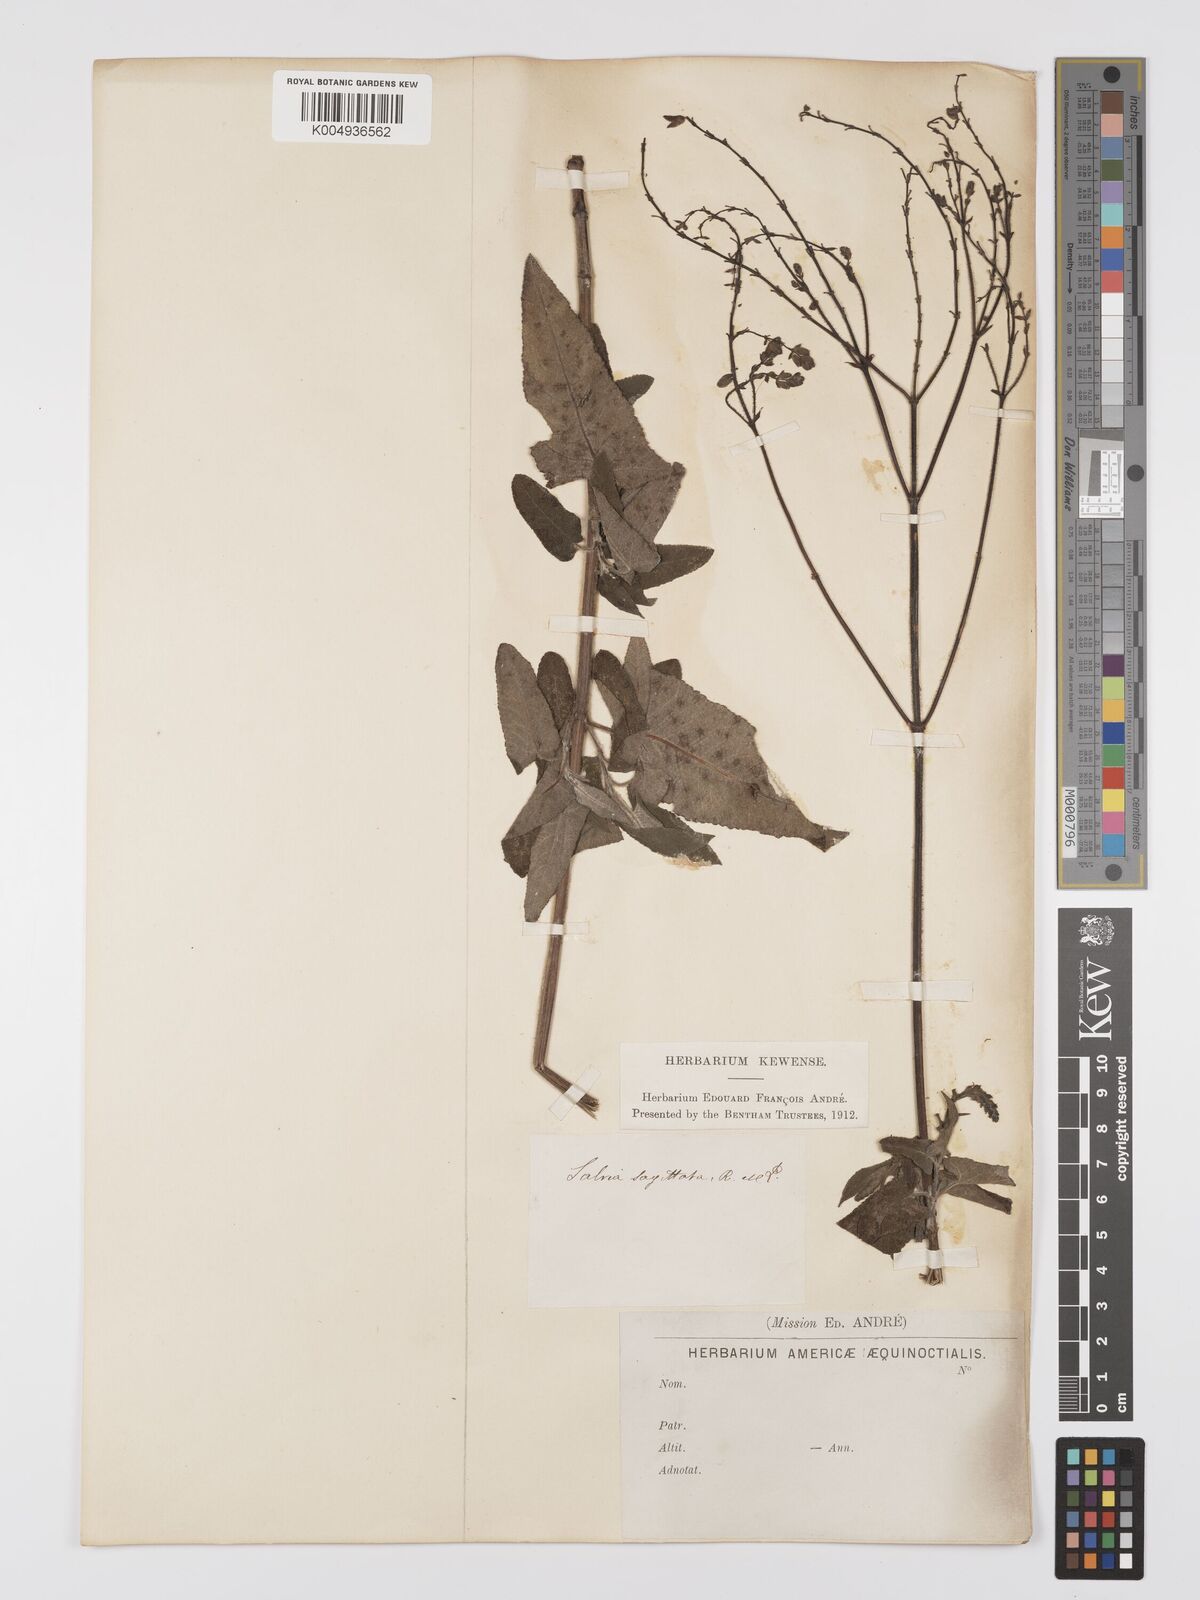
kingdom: Plantae
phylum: Tracheophyta
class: Magnoliopsida
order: Lamiales
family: Lamiaceae
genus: Salvia
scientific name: Salvia sagittata
